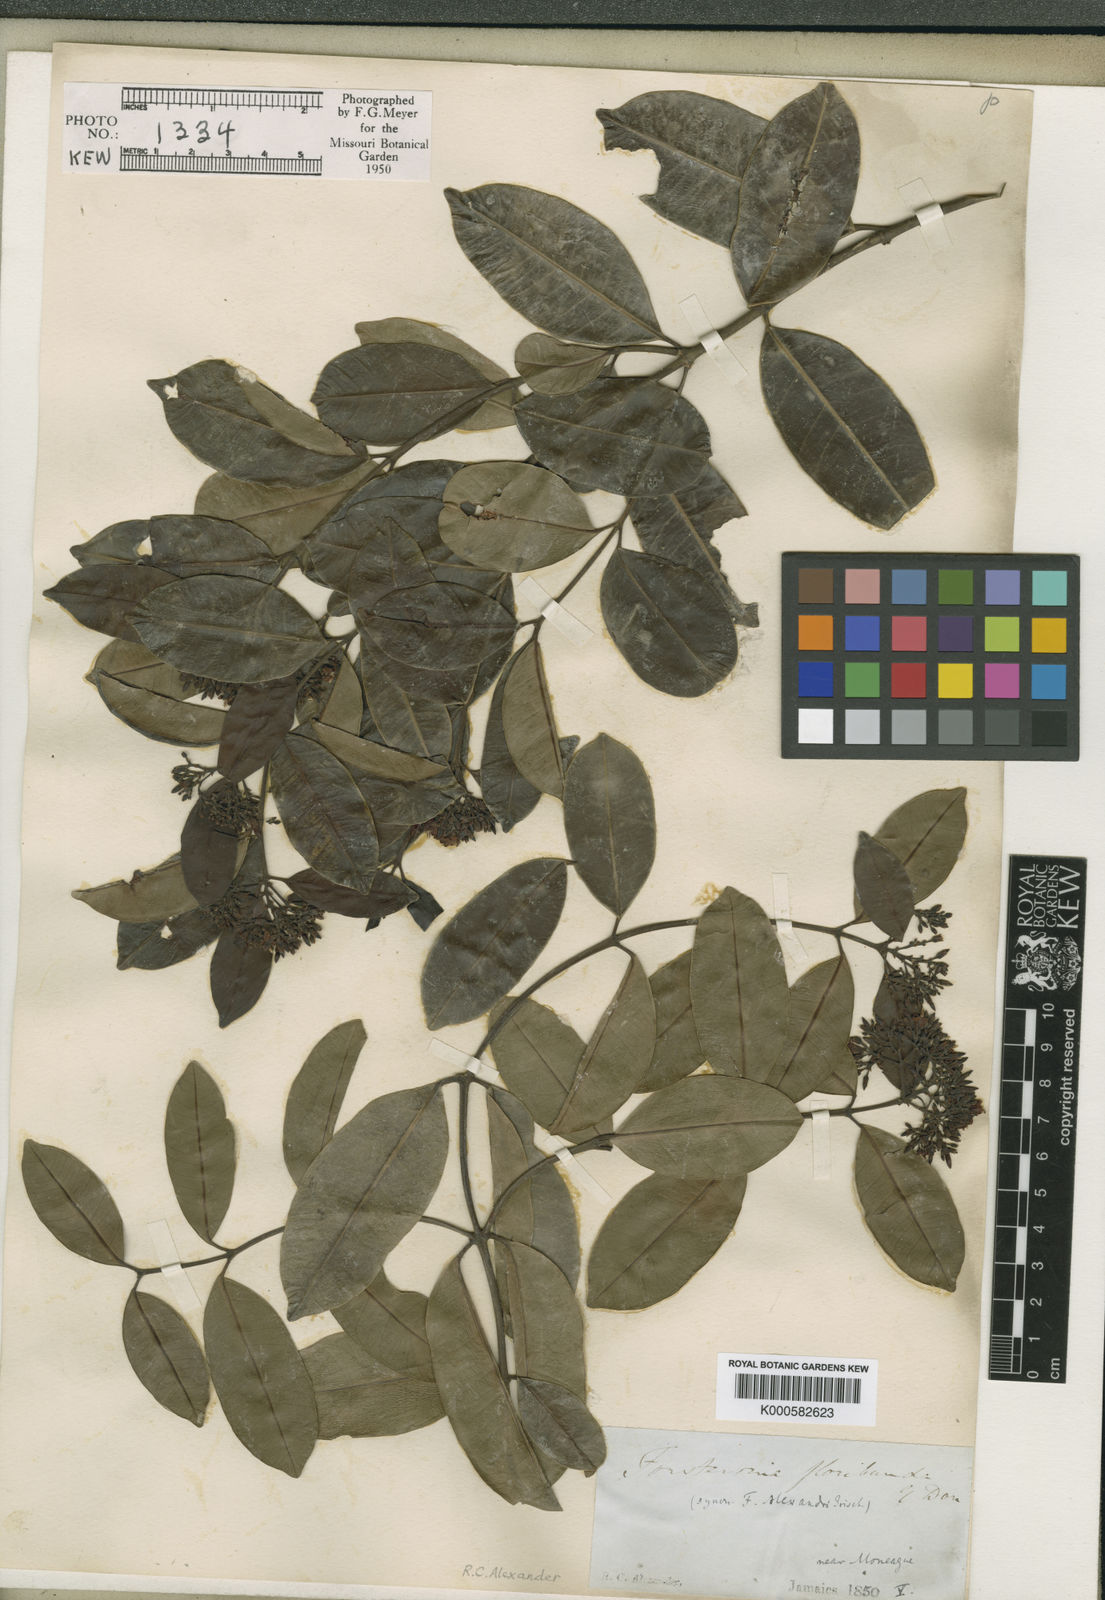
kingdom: Plantae
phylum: Tracheophyta
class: Magnoliopsida
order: Gentianales
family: Apocynaceae
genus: Pinochia
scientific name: Pinochia floribunda
